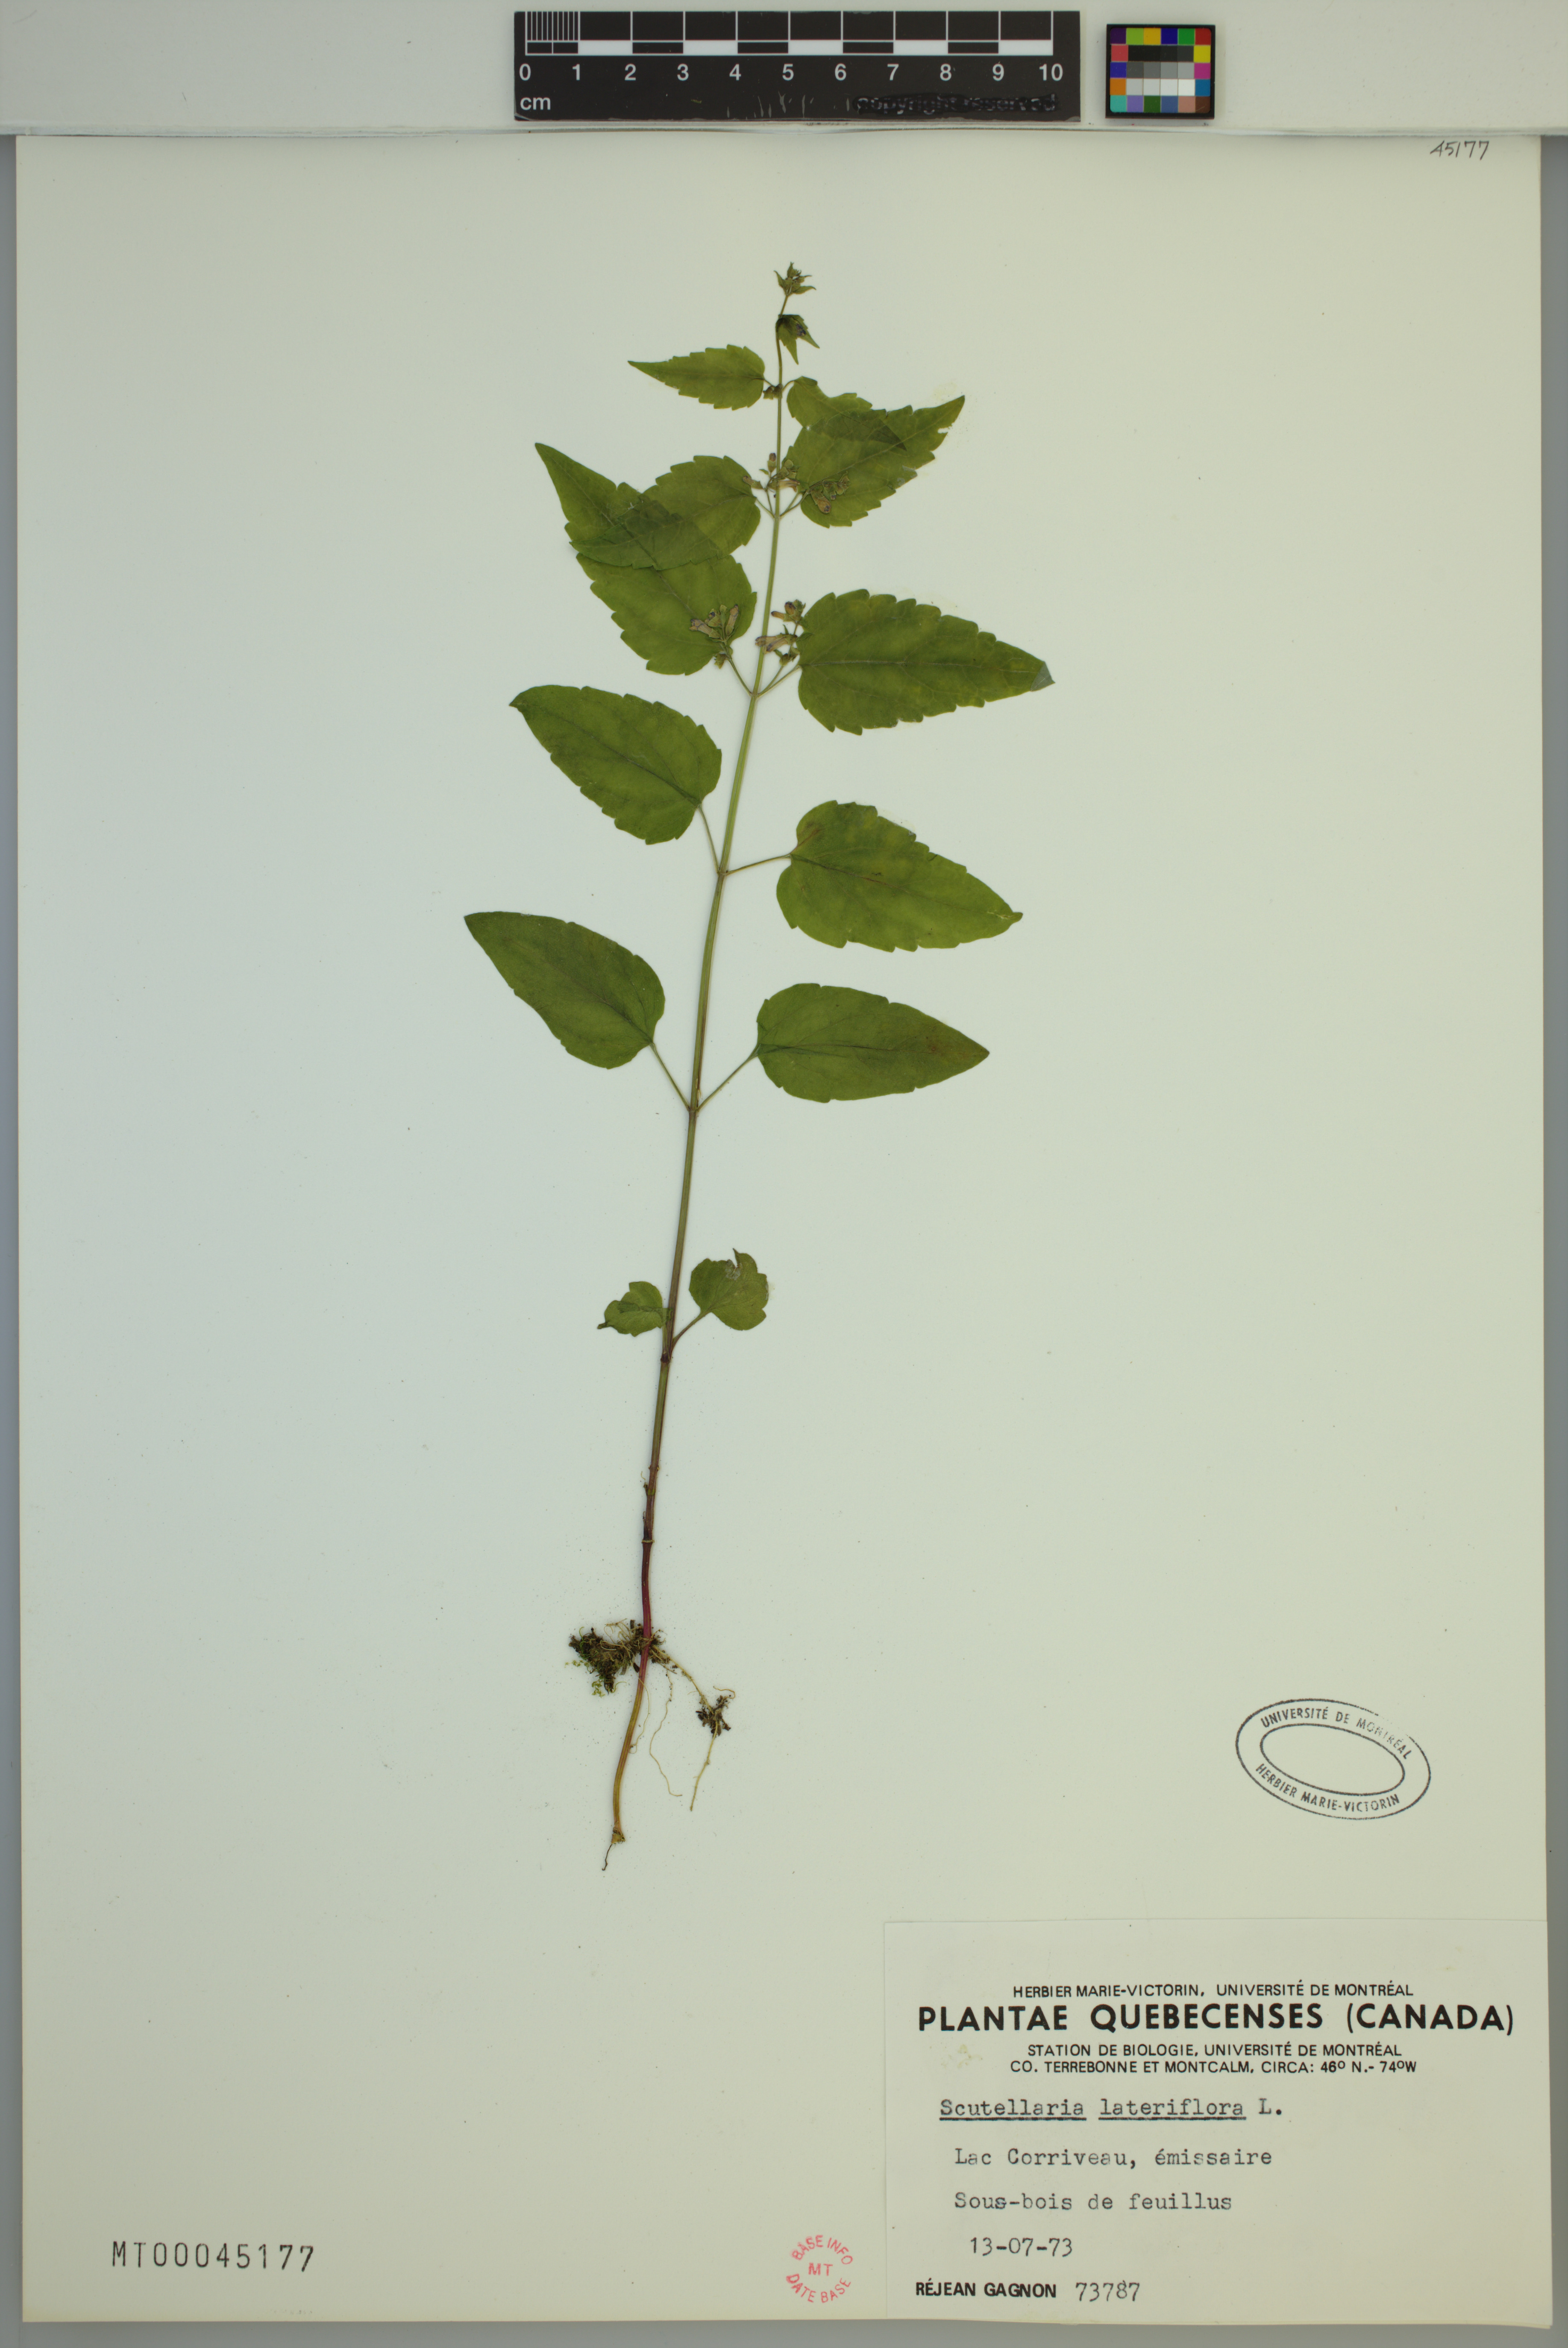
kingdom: Plantae
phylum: Tracheophyta
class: Magnoliopsida
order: Lamiales
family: Lamiaceae
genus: Scutellaria
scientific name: Scutellaria lateriflora
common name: Blue skullcap
